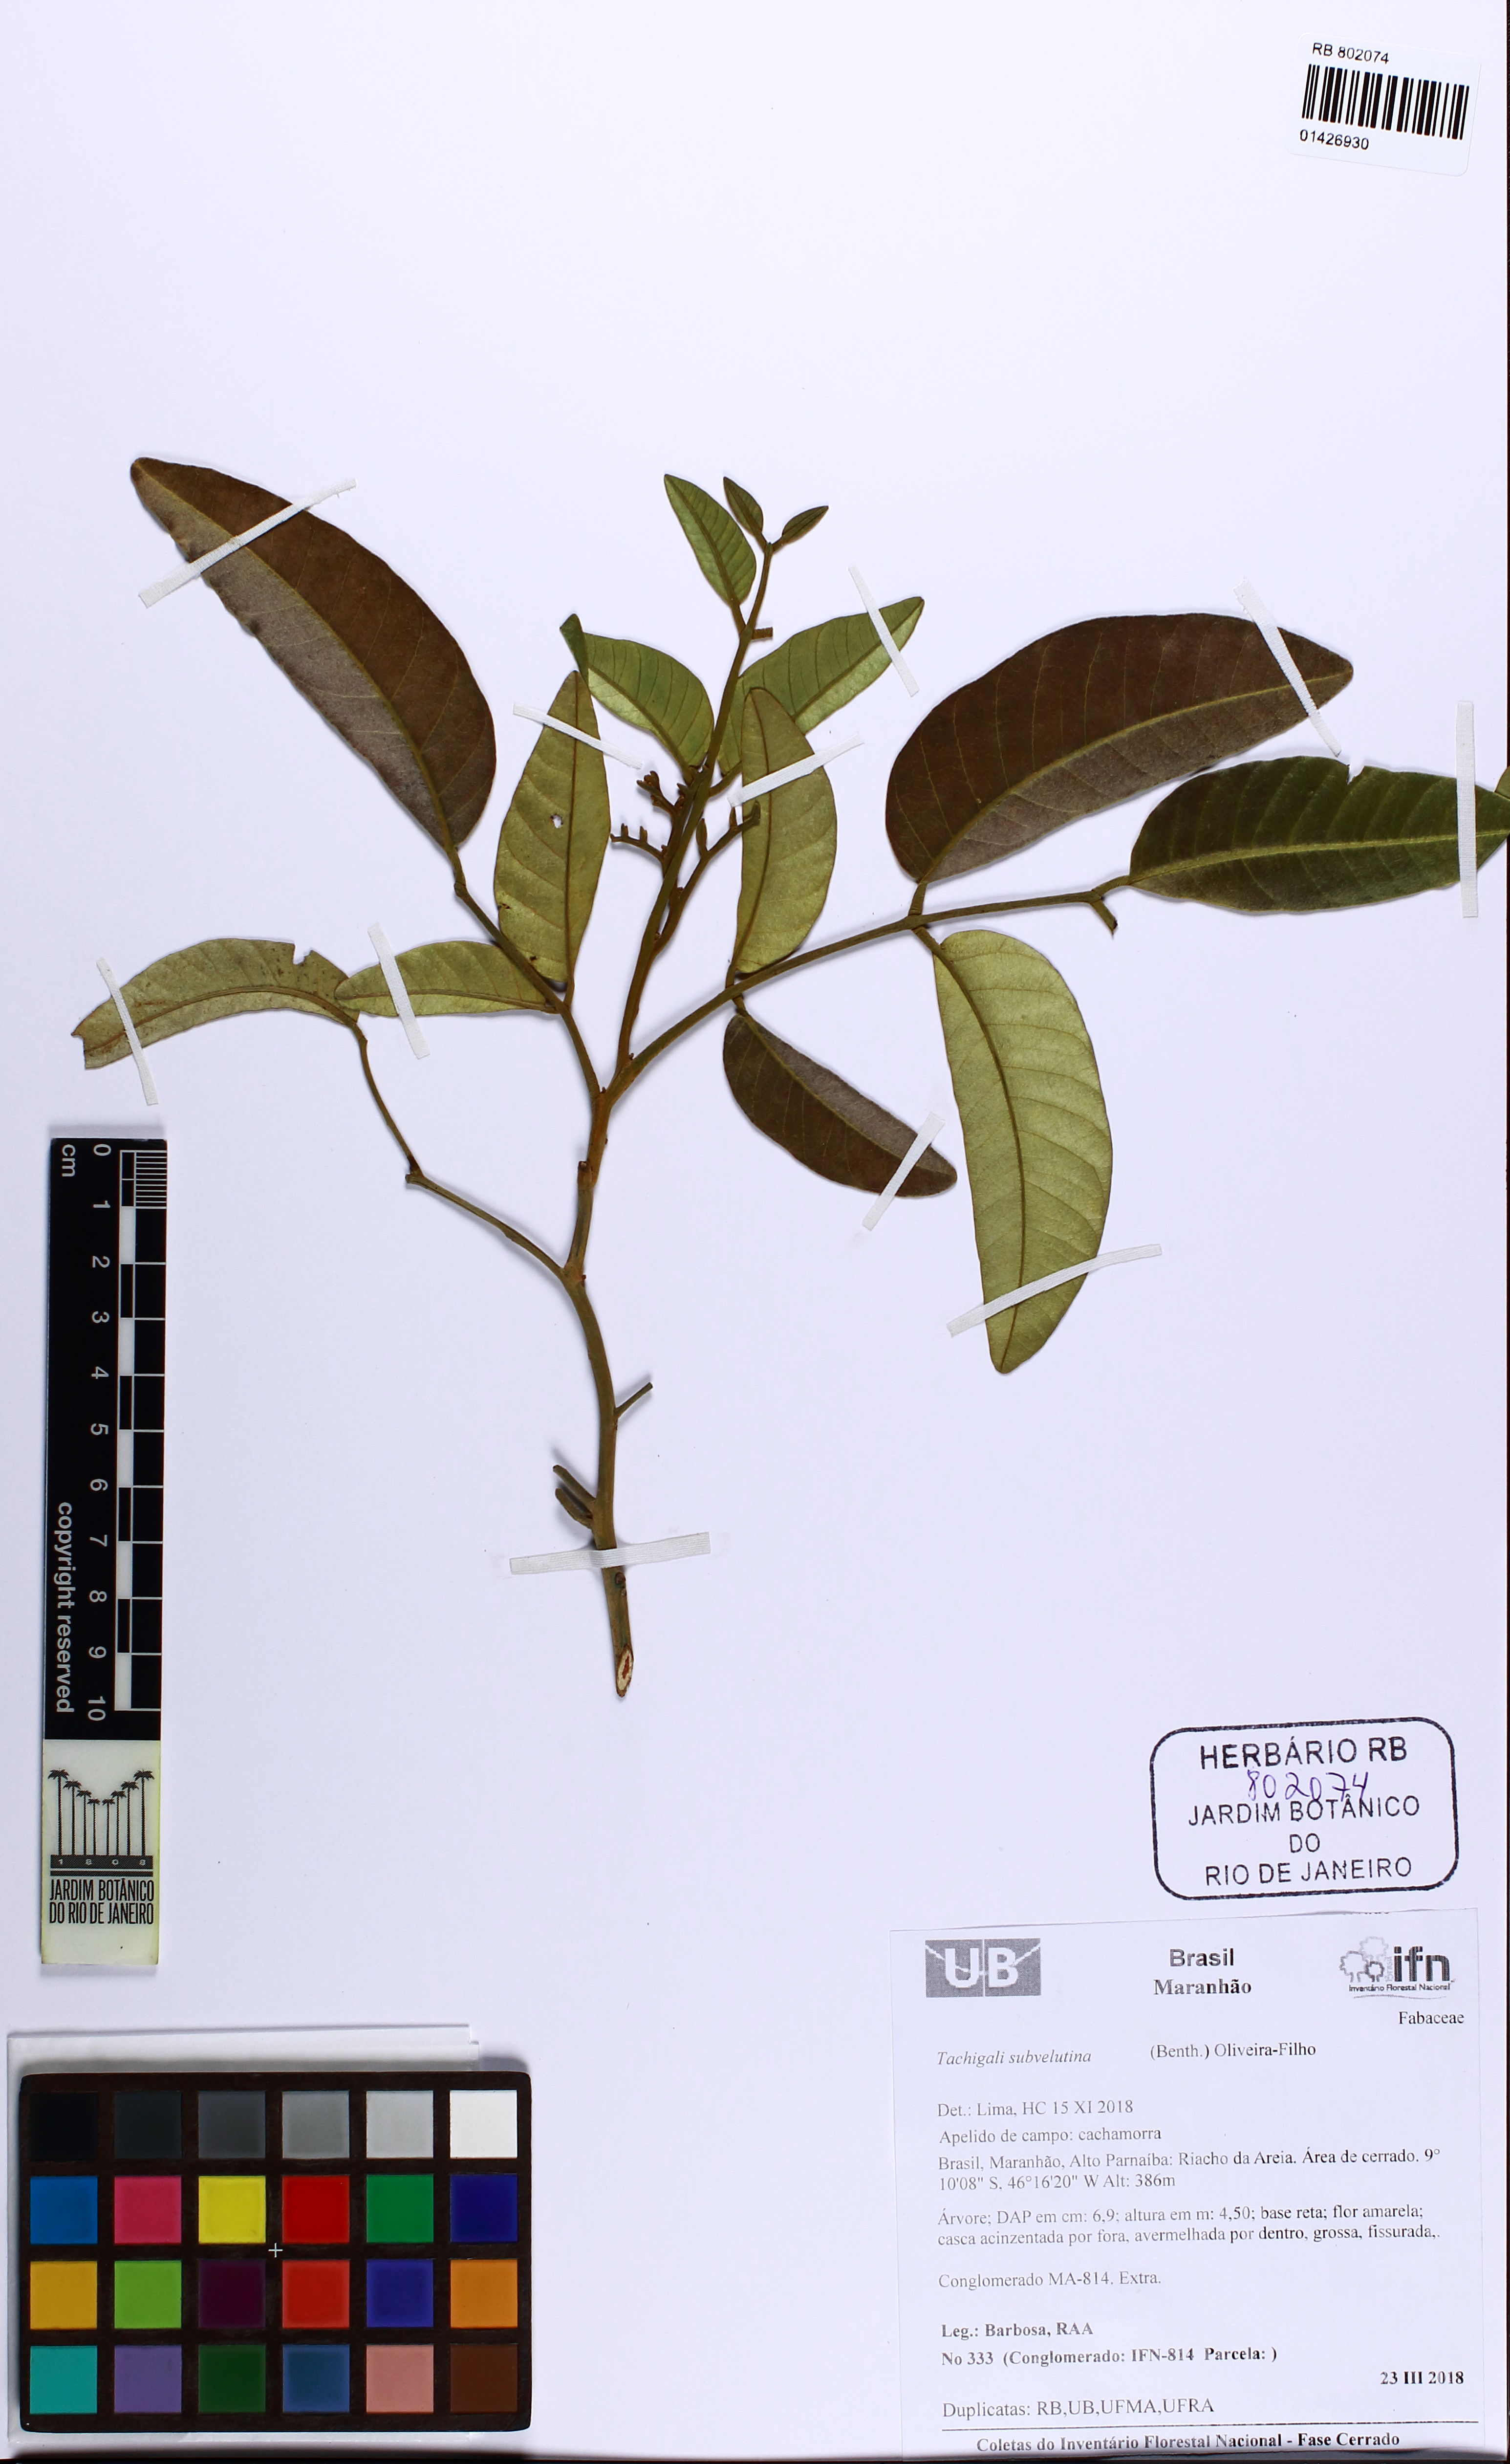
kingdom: Plantae
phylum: Tracheophyta
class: Magnoliopsida
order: Fabales
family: Fabaceae
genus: Tachigali
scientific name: Tachigali subvelutina
